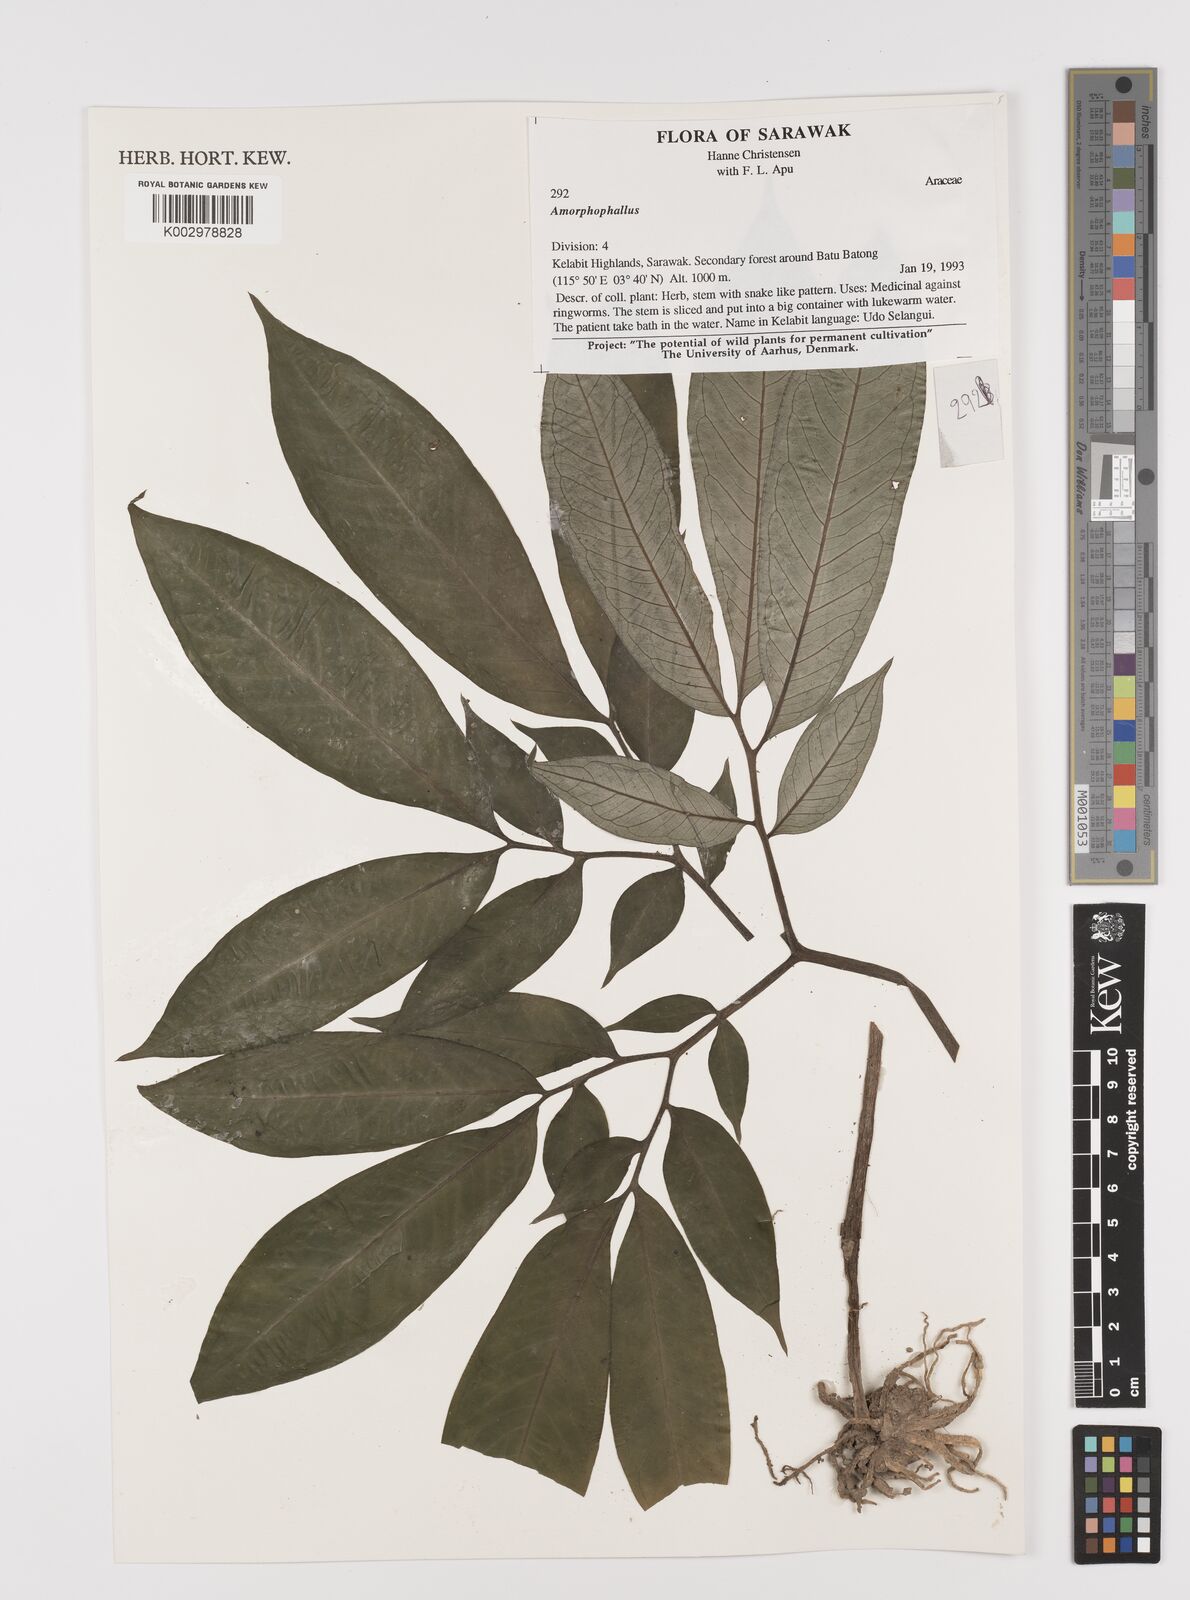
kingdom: Plantae
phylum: Tracheophyta
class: Liliopsida
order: Alismatales
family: Araceae
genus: Amorphophallus
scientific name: Amorphophallus
